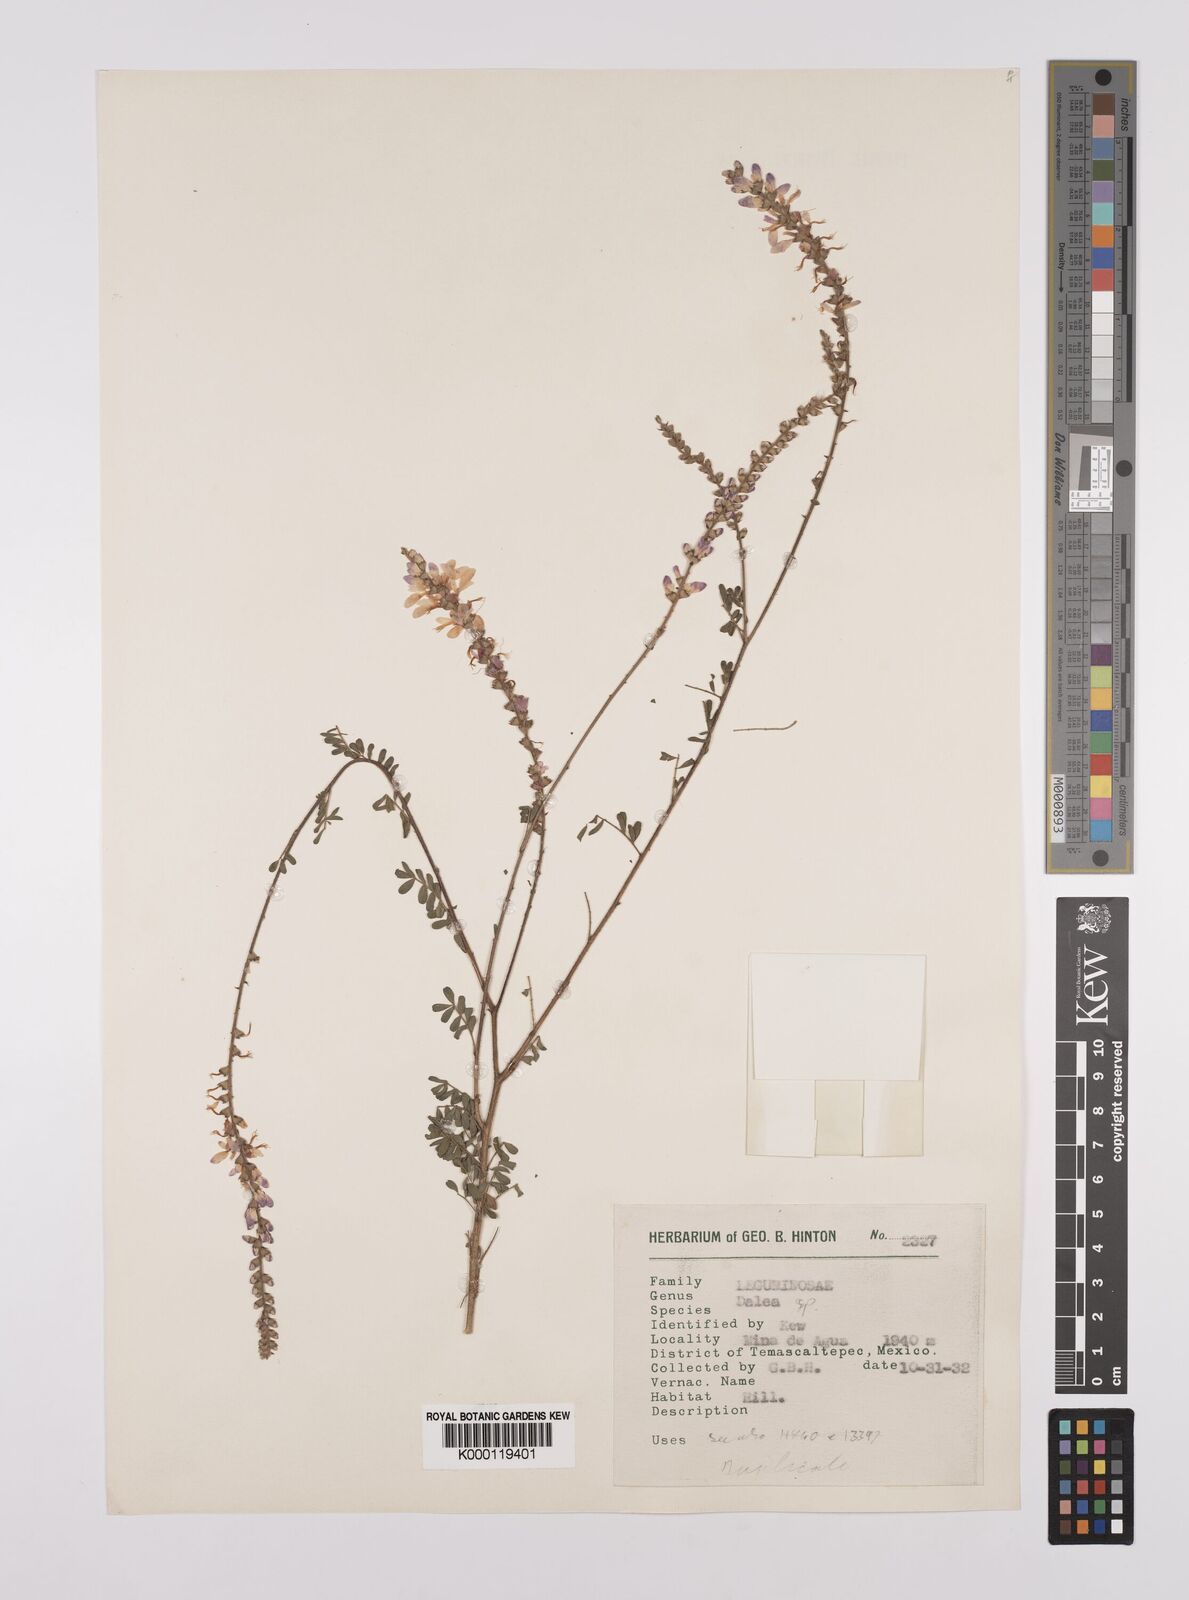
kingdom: Plantae
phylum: Tracheophyta
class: Magnoliopsida
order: Fabales
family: Fabaceae
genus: Dalea
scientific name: Dalea
